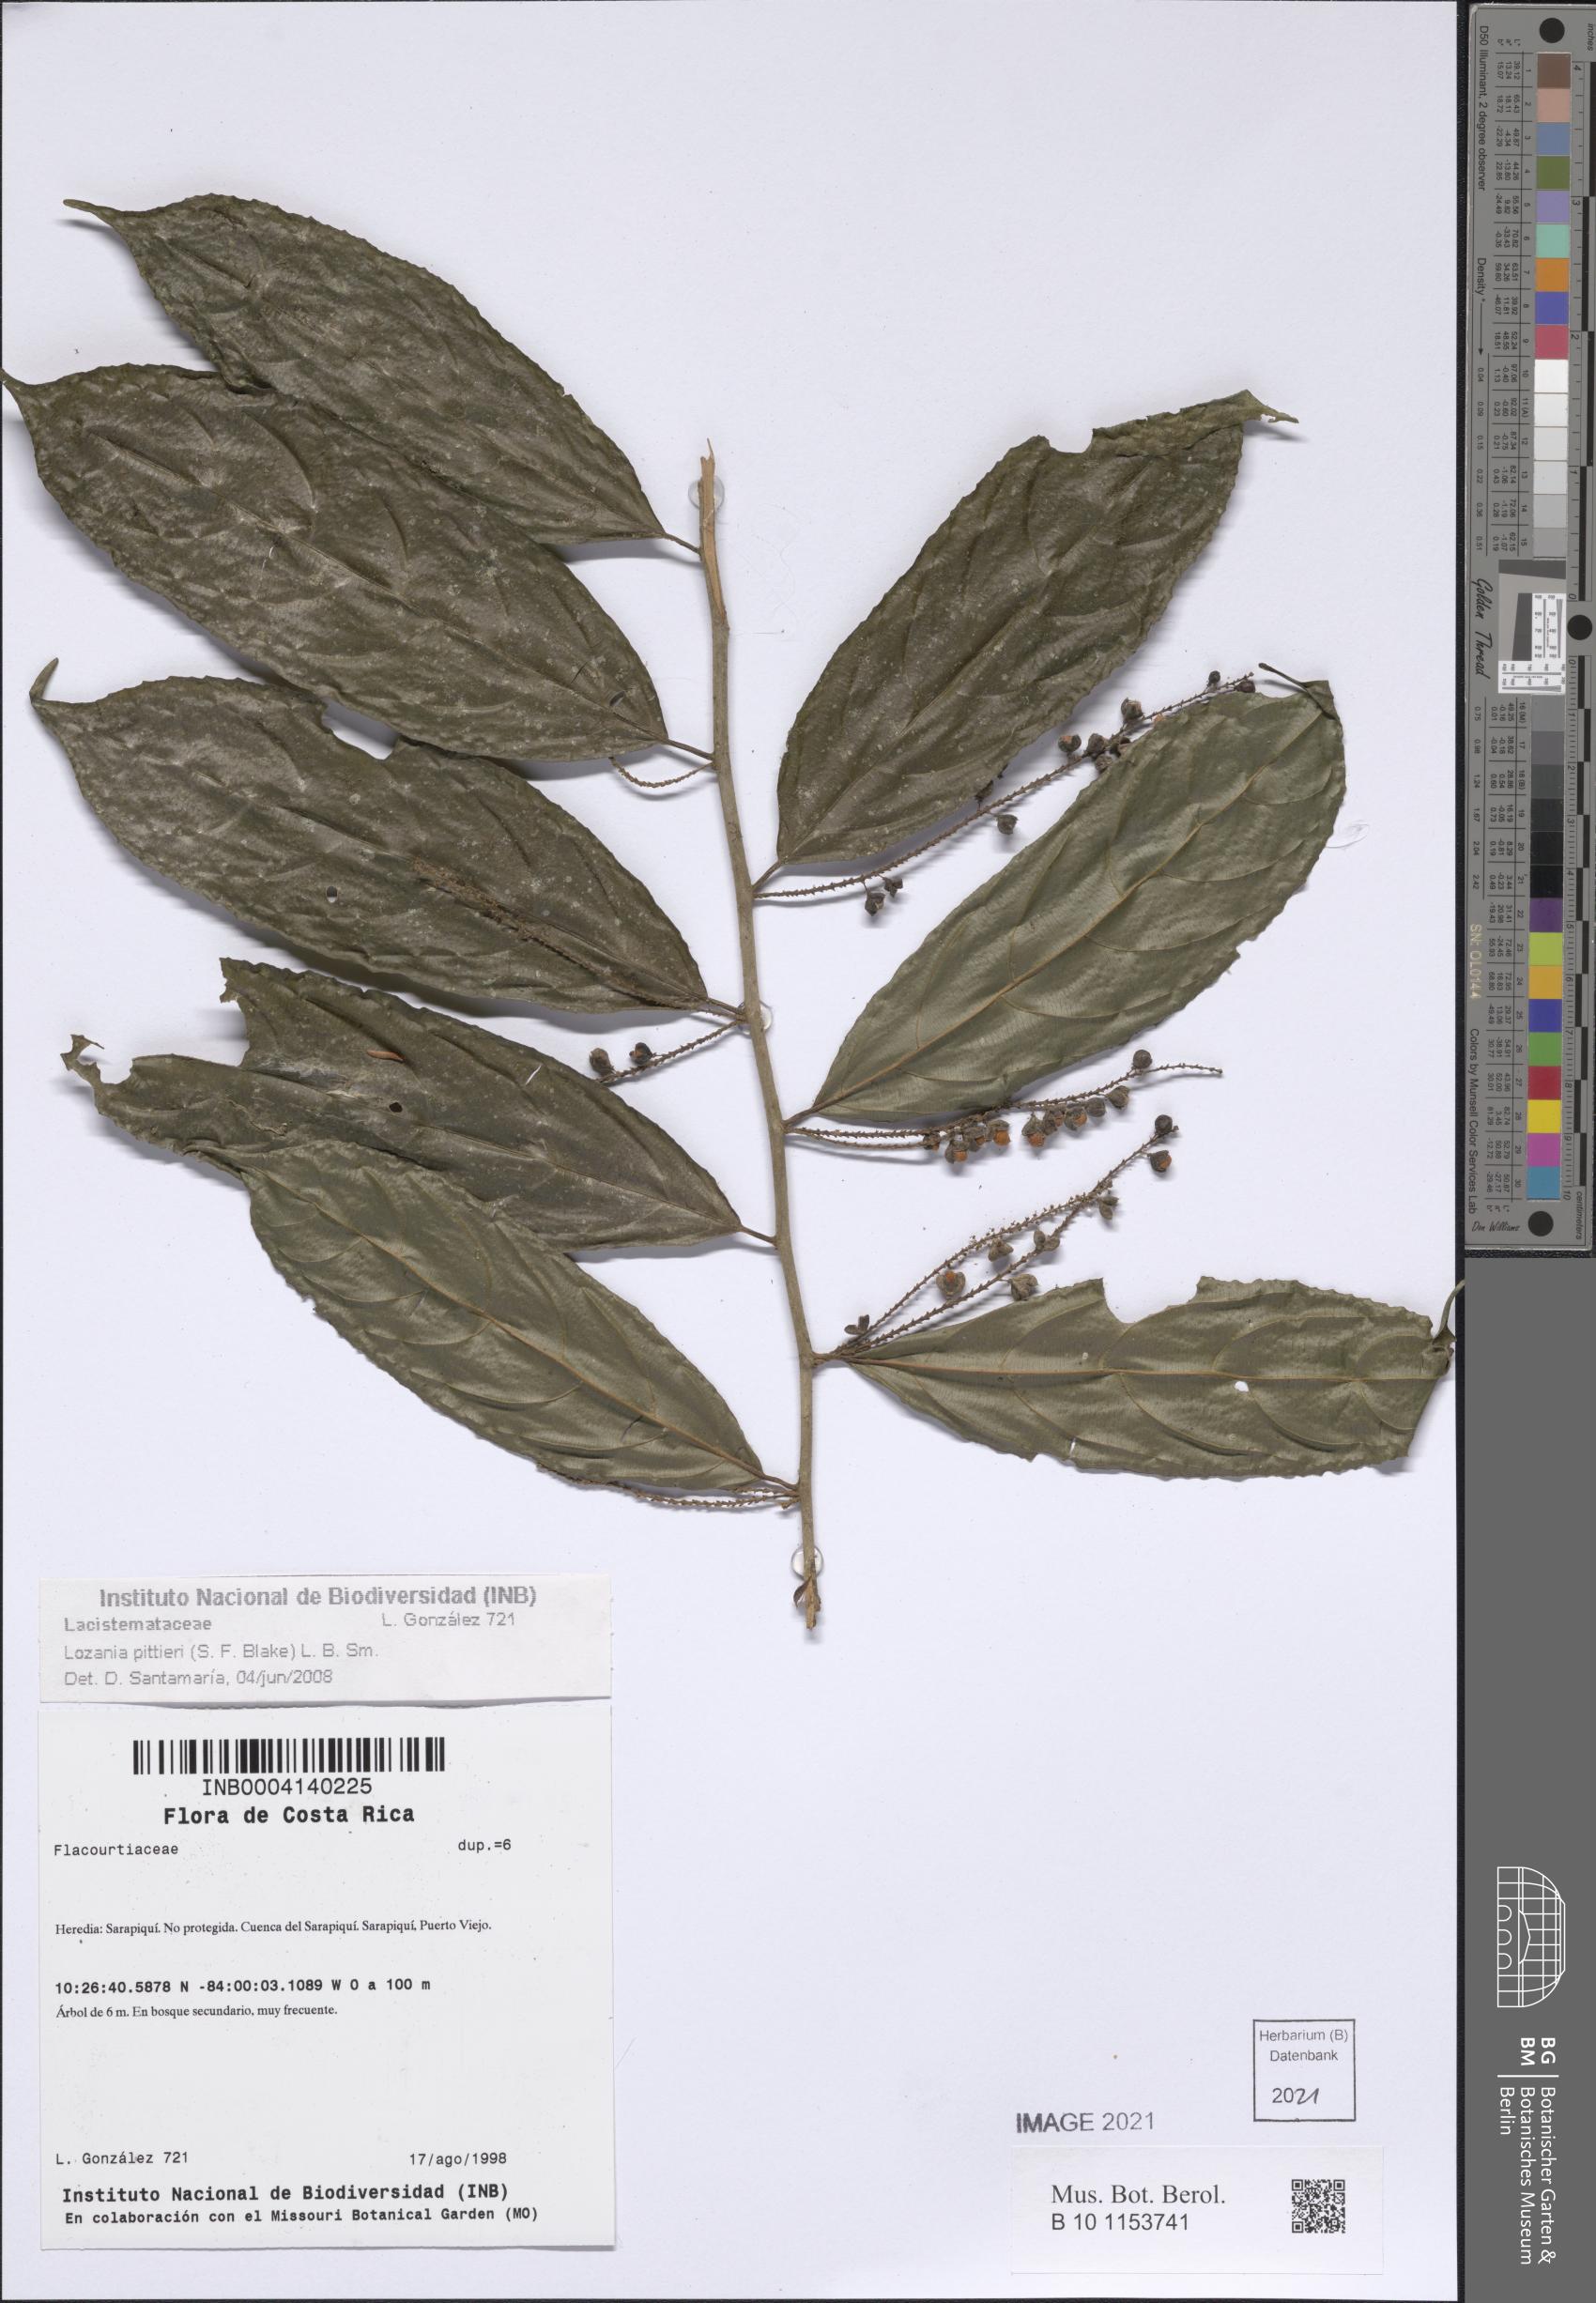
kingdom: Plantae
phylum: Tracheophyta
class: Magnoliopsida
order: Malpighiales
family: Lacistemataceae
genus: Lozania
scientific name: Lozania pittieri
